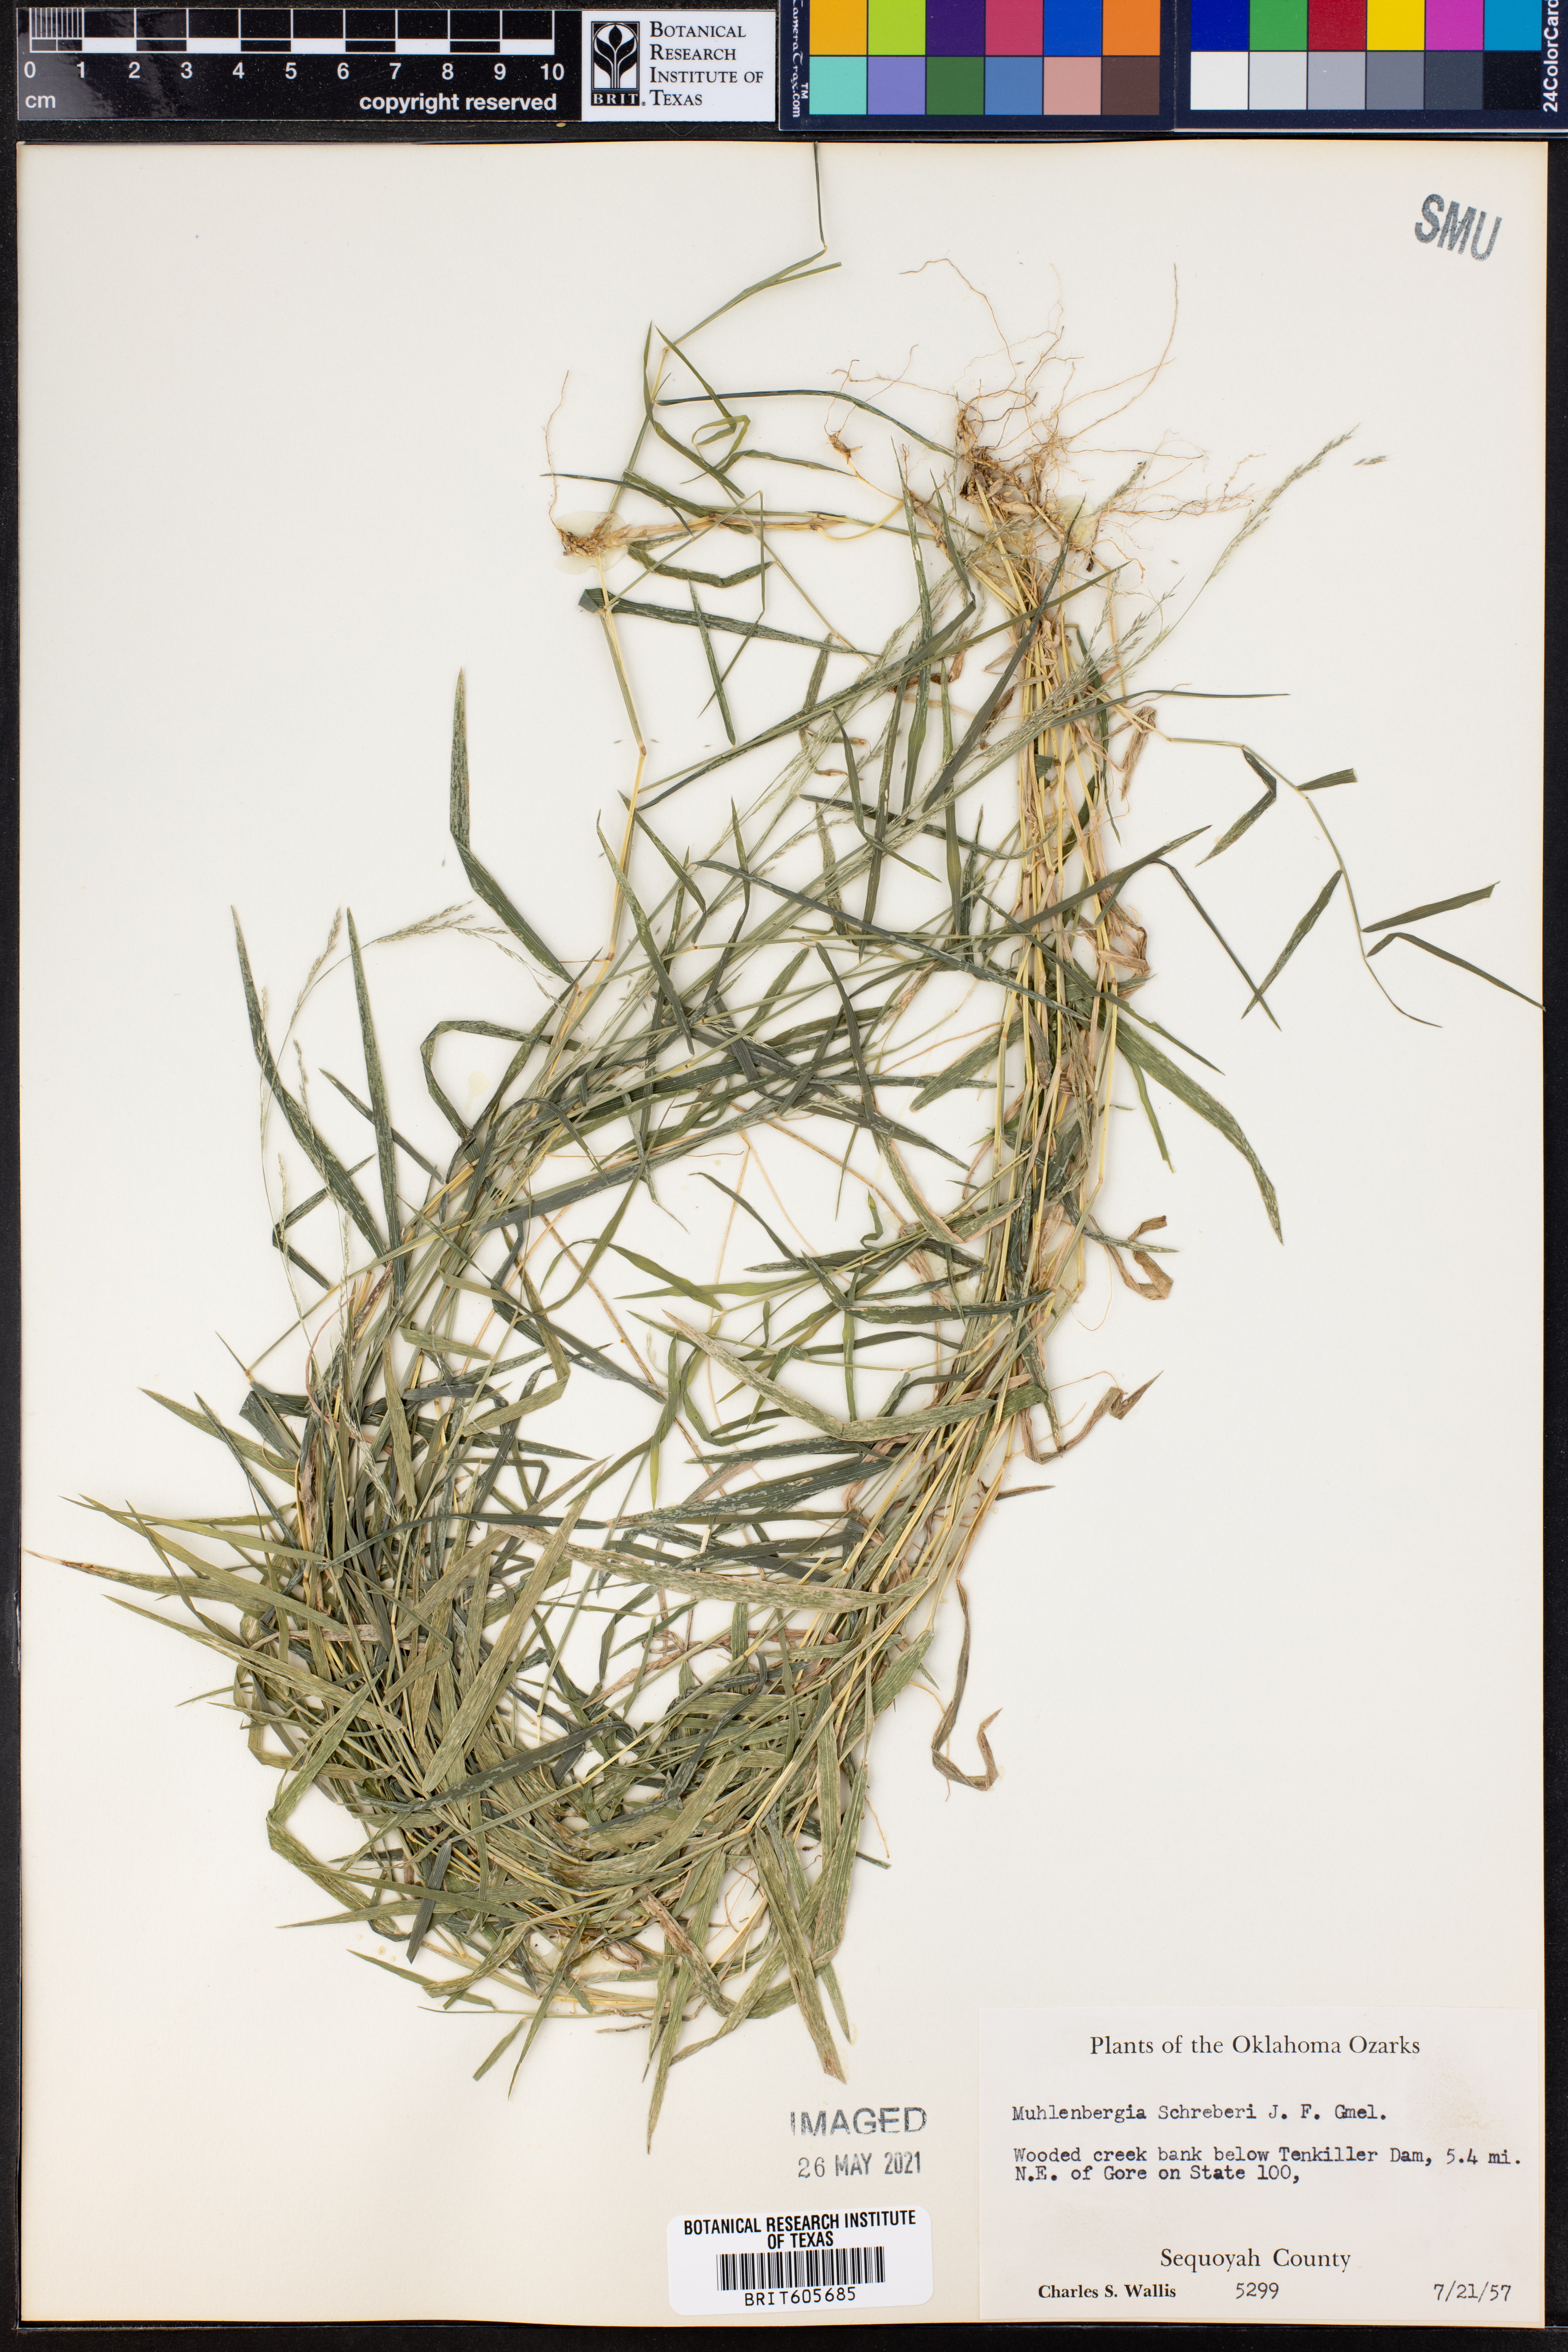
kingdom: Plantae
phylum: Tracheophyta
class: Liliopsida
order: Poales
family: Poaceae
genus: Muhlenbergia
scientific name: Muhlenbergia schreberi
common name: Nimblewill
